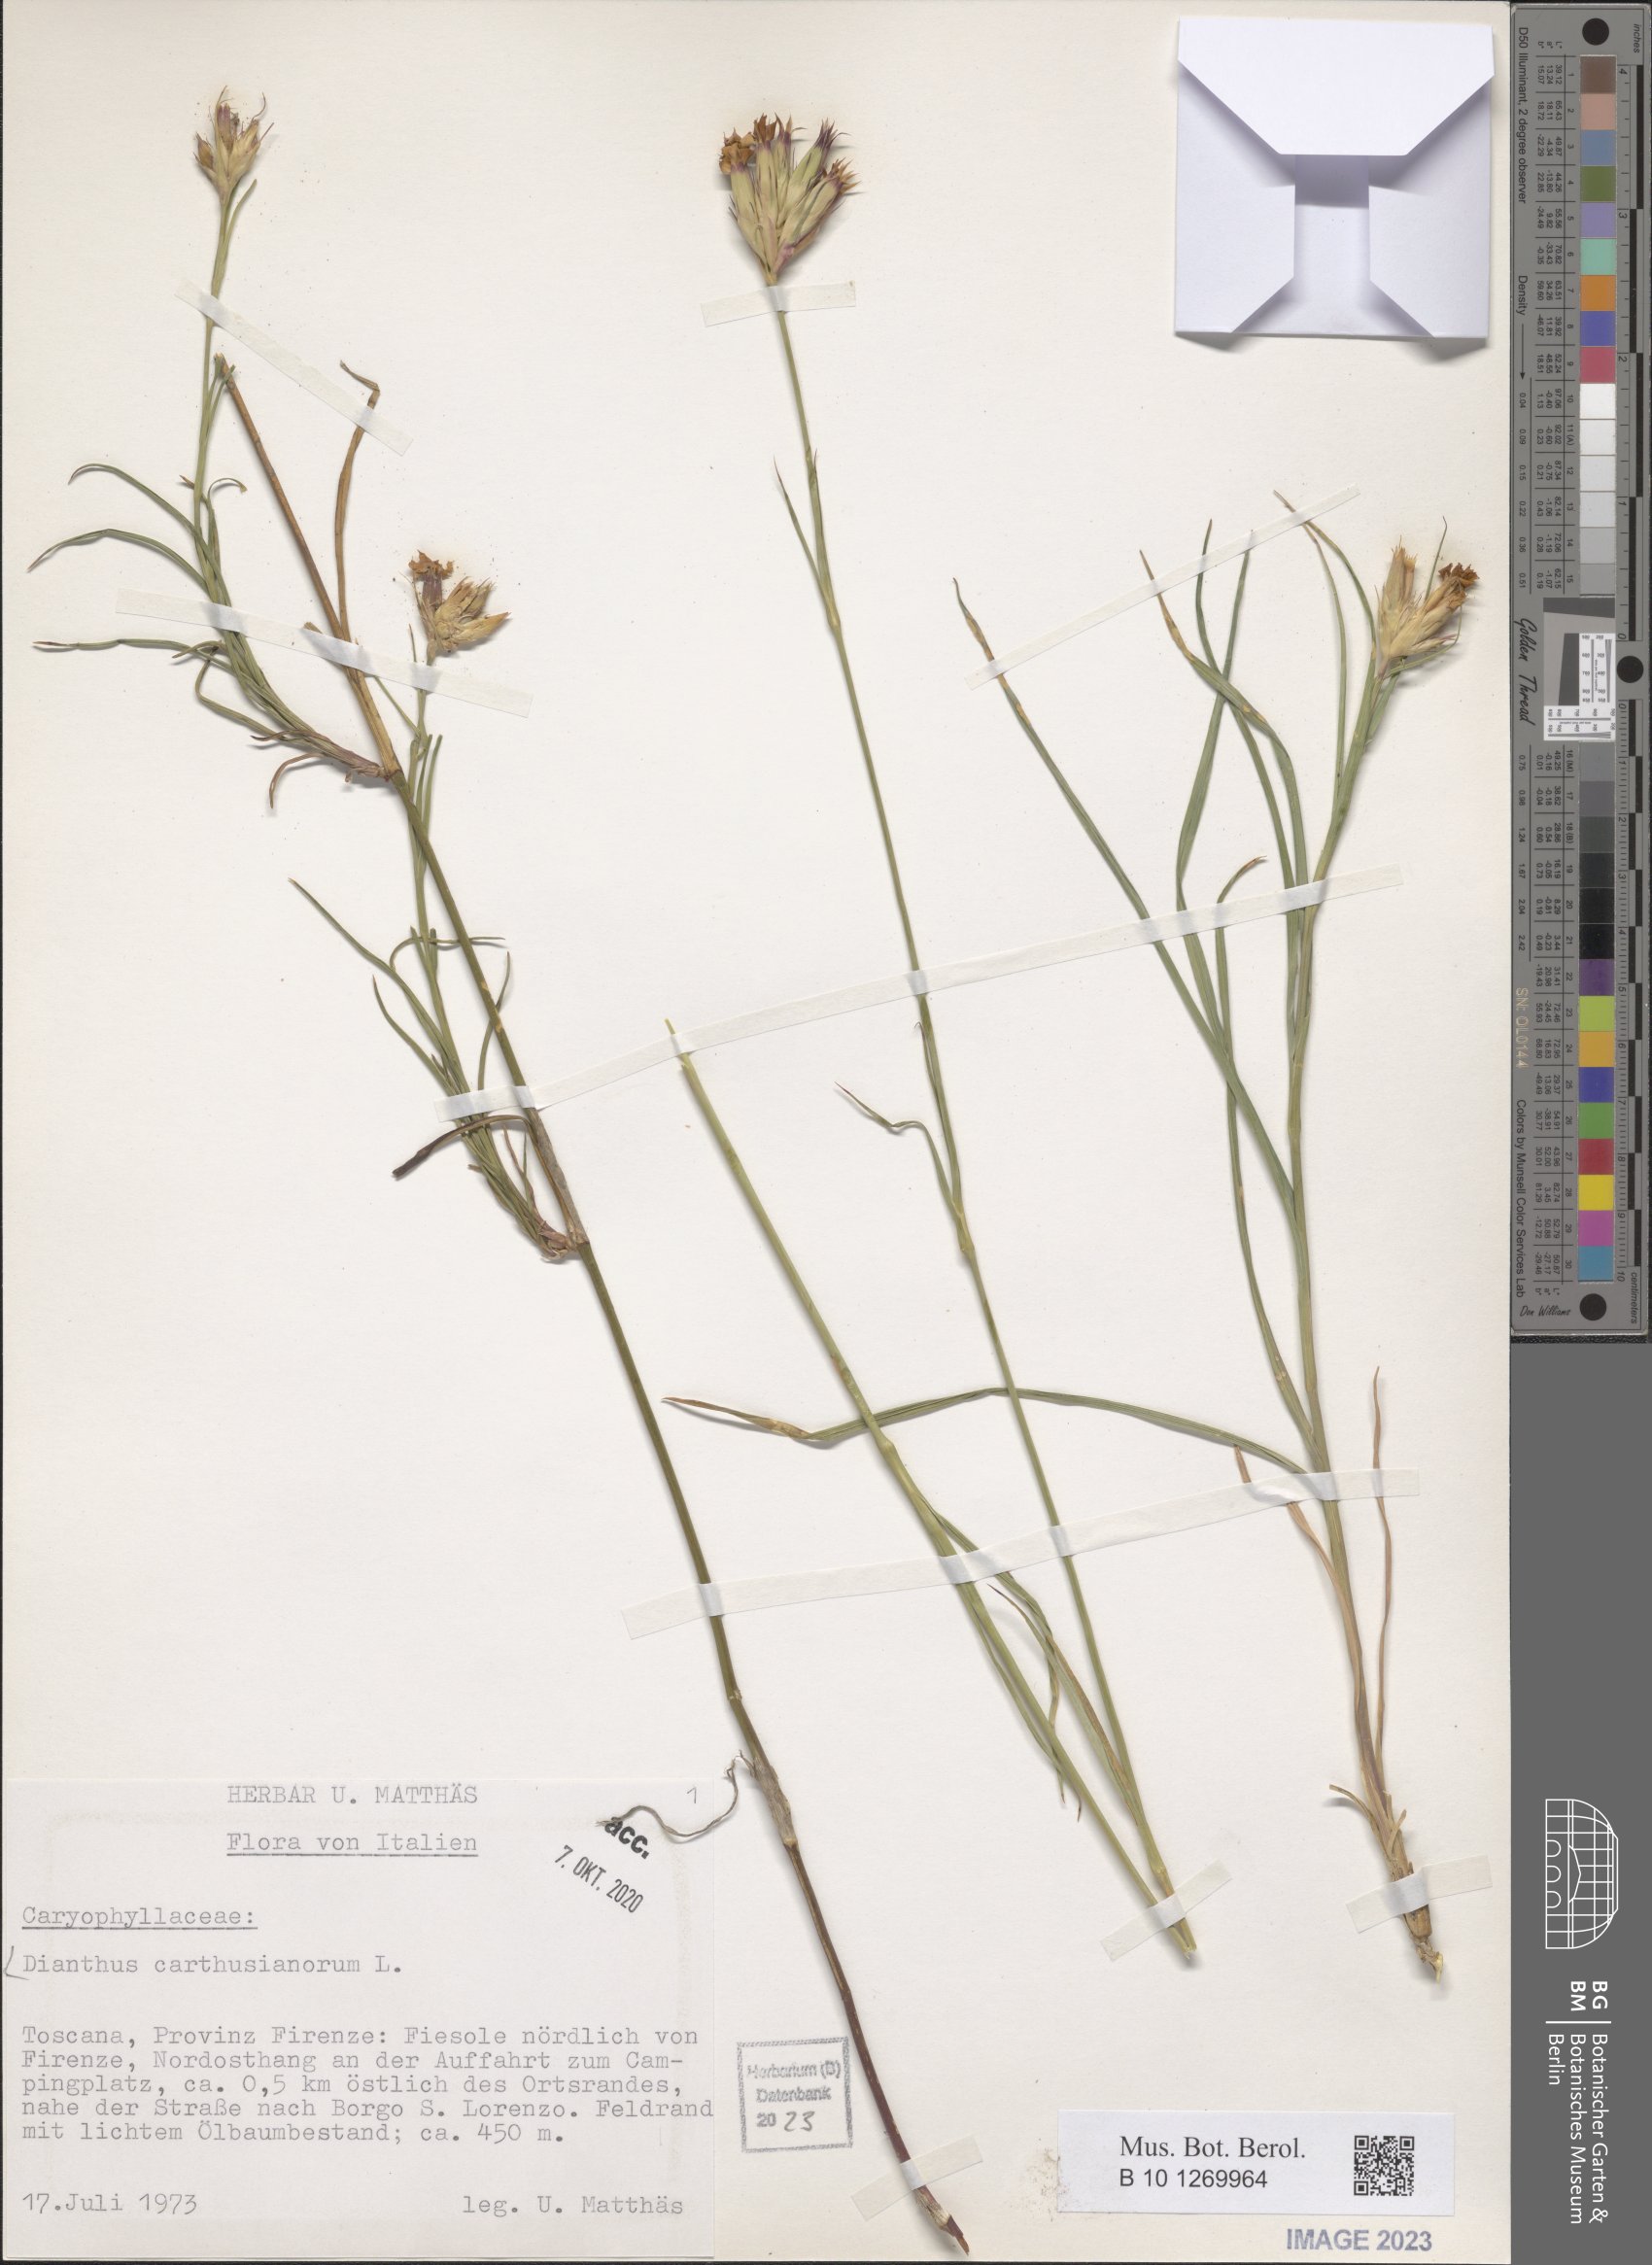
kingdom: Plantae
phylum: Tracheophyta
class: Magnoliopsida
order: Caryophyllales
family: Caryophyllaceae
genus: Dianthus
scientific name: Dianthus carthusianorum
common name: Carthusian pink
